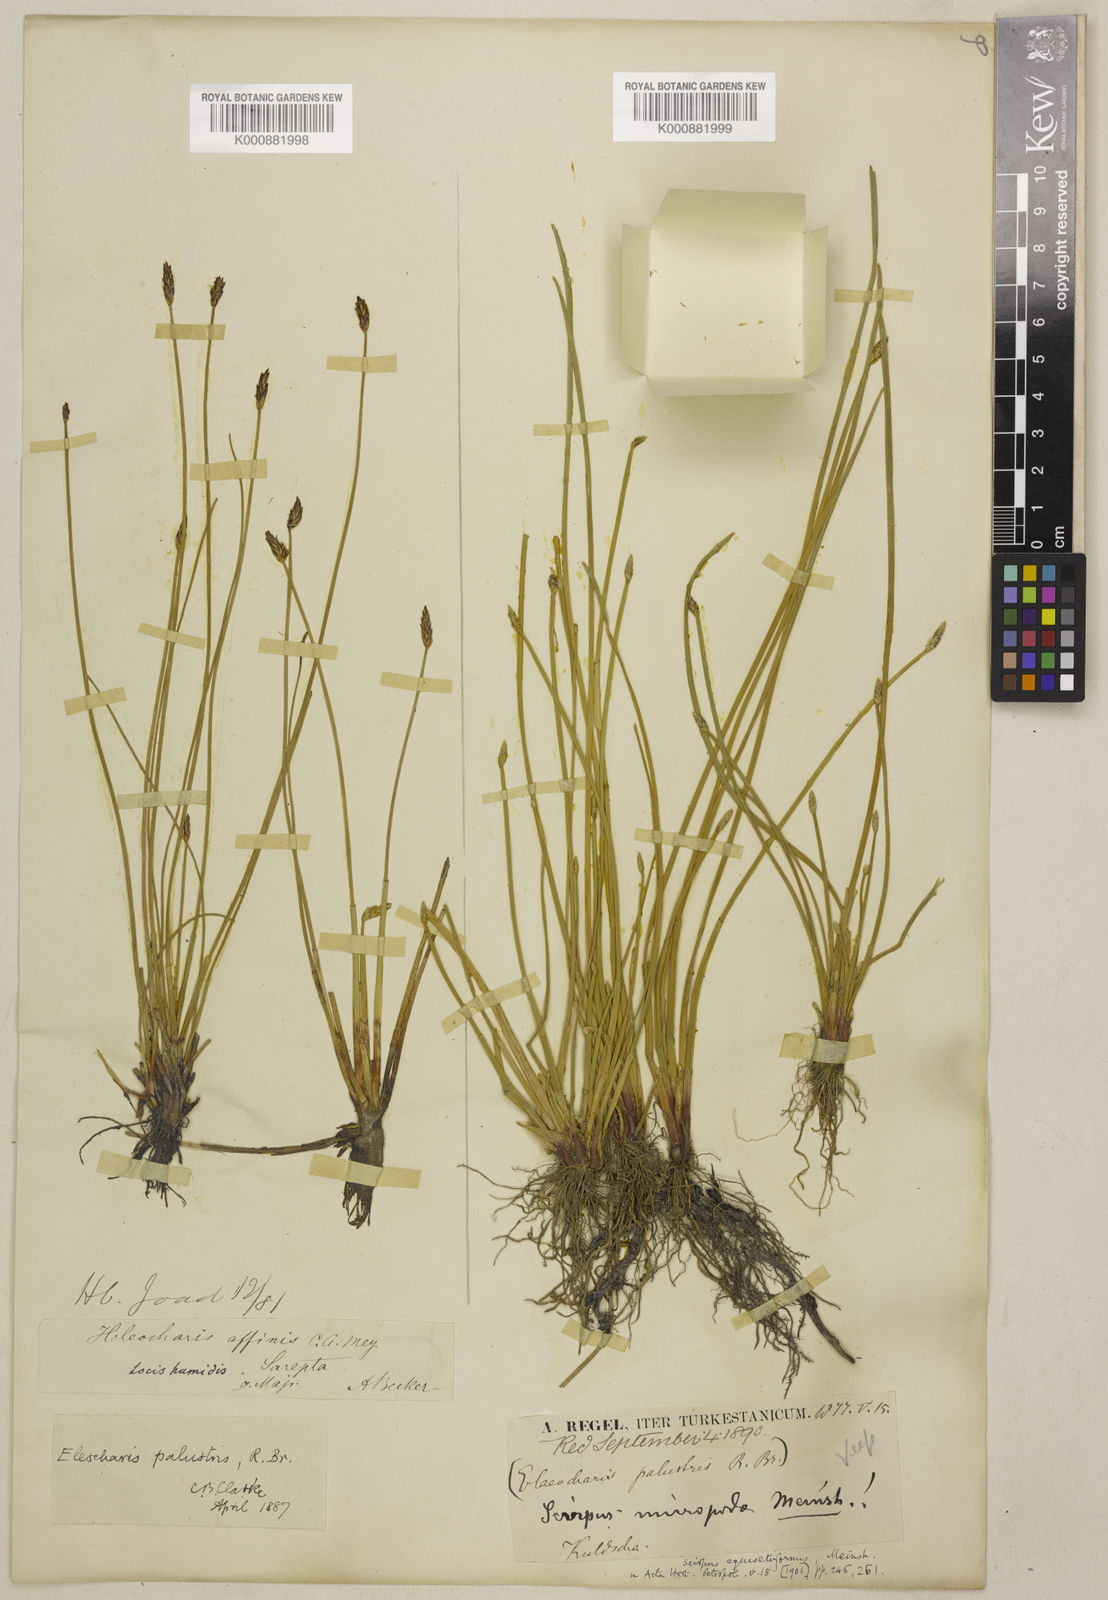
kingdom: Plantae
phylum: Tracheophyta
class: Liliopsida
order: Poales
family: Cyperaceae
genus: Eleocharis
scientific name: Eleocharis palustris
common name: Common spike-rush
